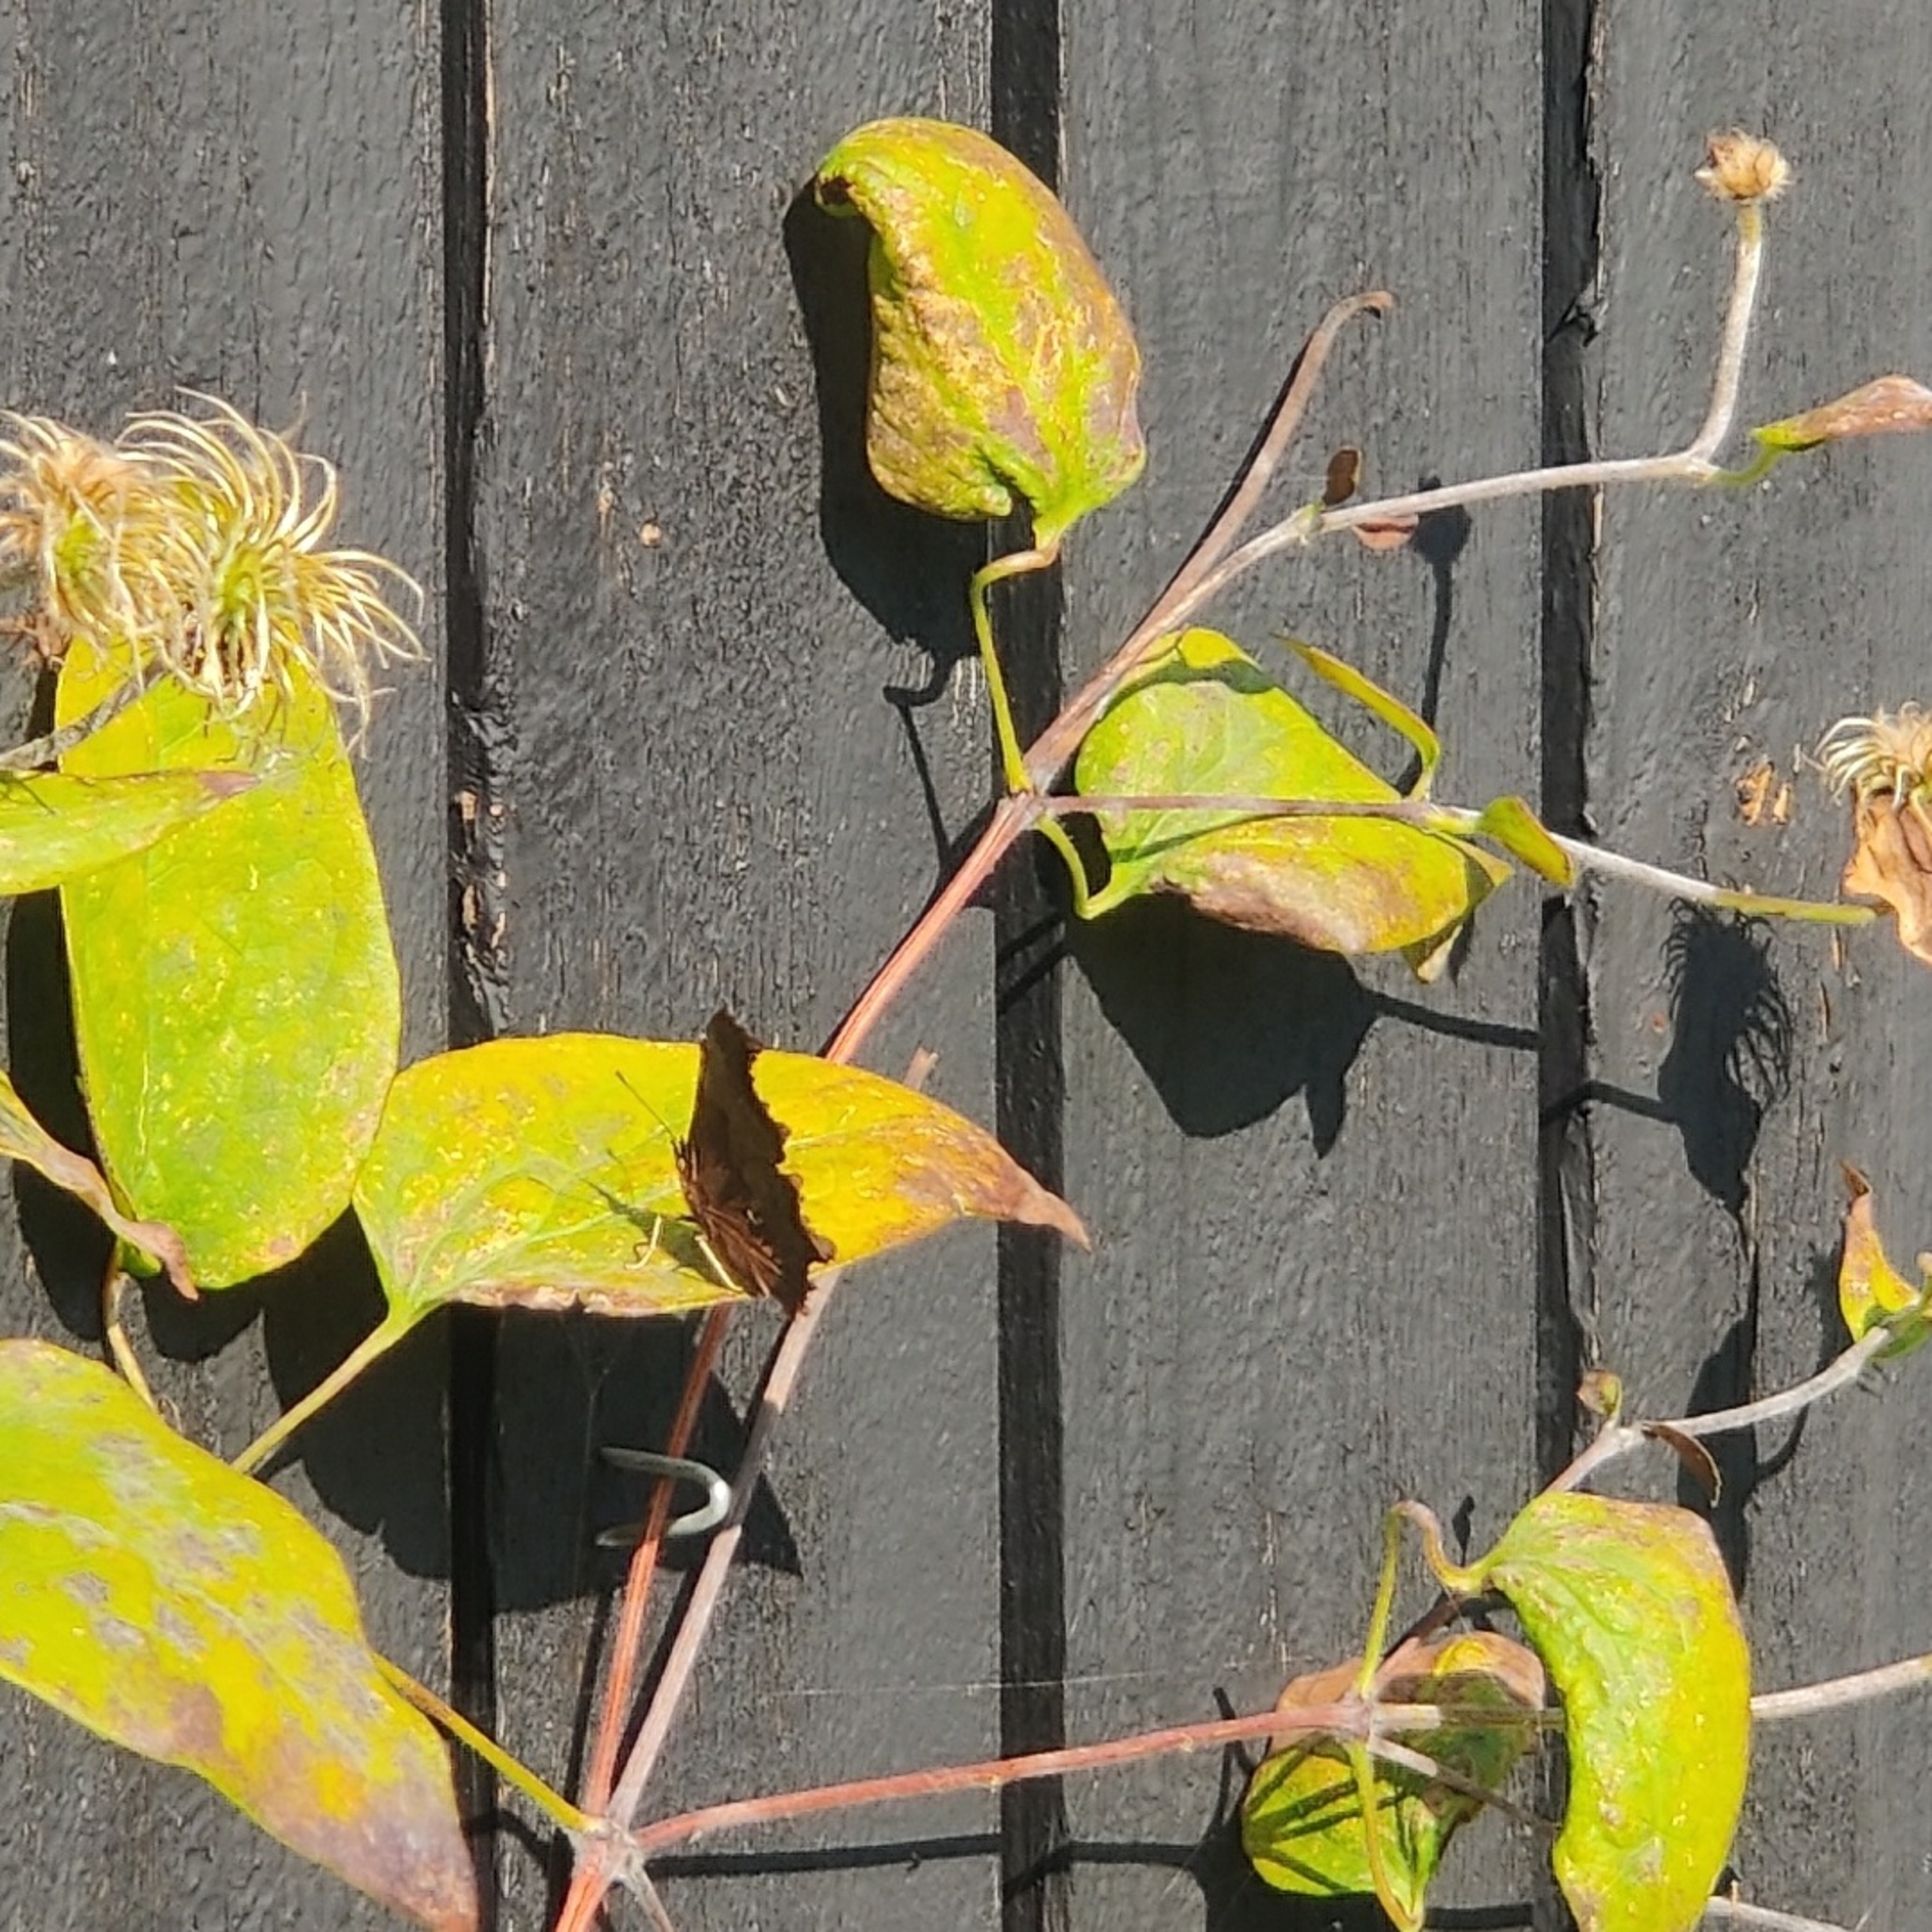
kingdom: Animalia
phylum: Arthropoda
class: Insecta
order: Lepidoptera
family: Nymphalidae
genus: Polygonia
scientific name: Polygonia c-album
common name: Det hvide C
